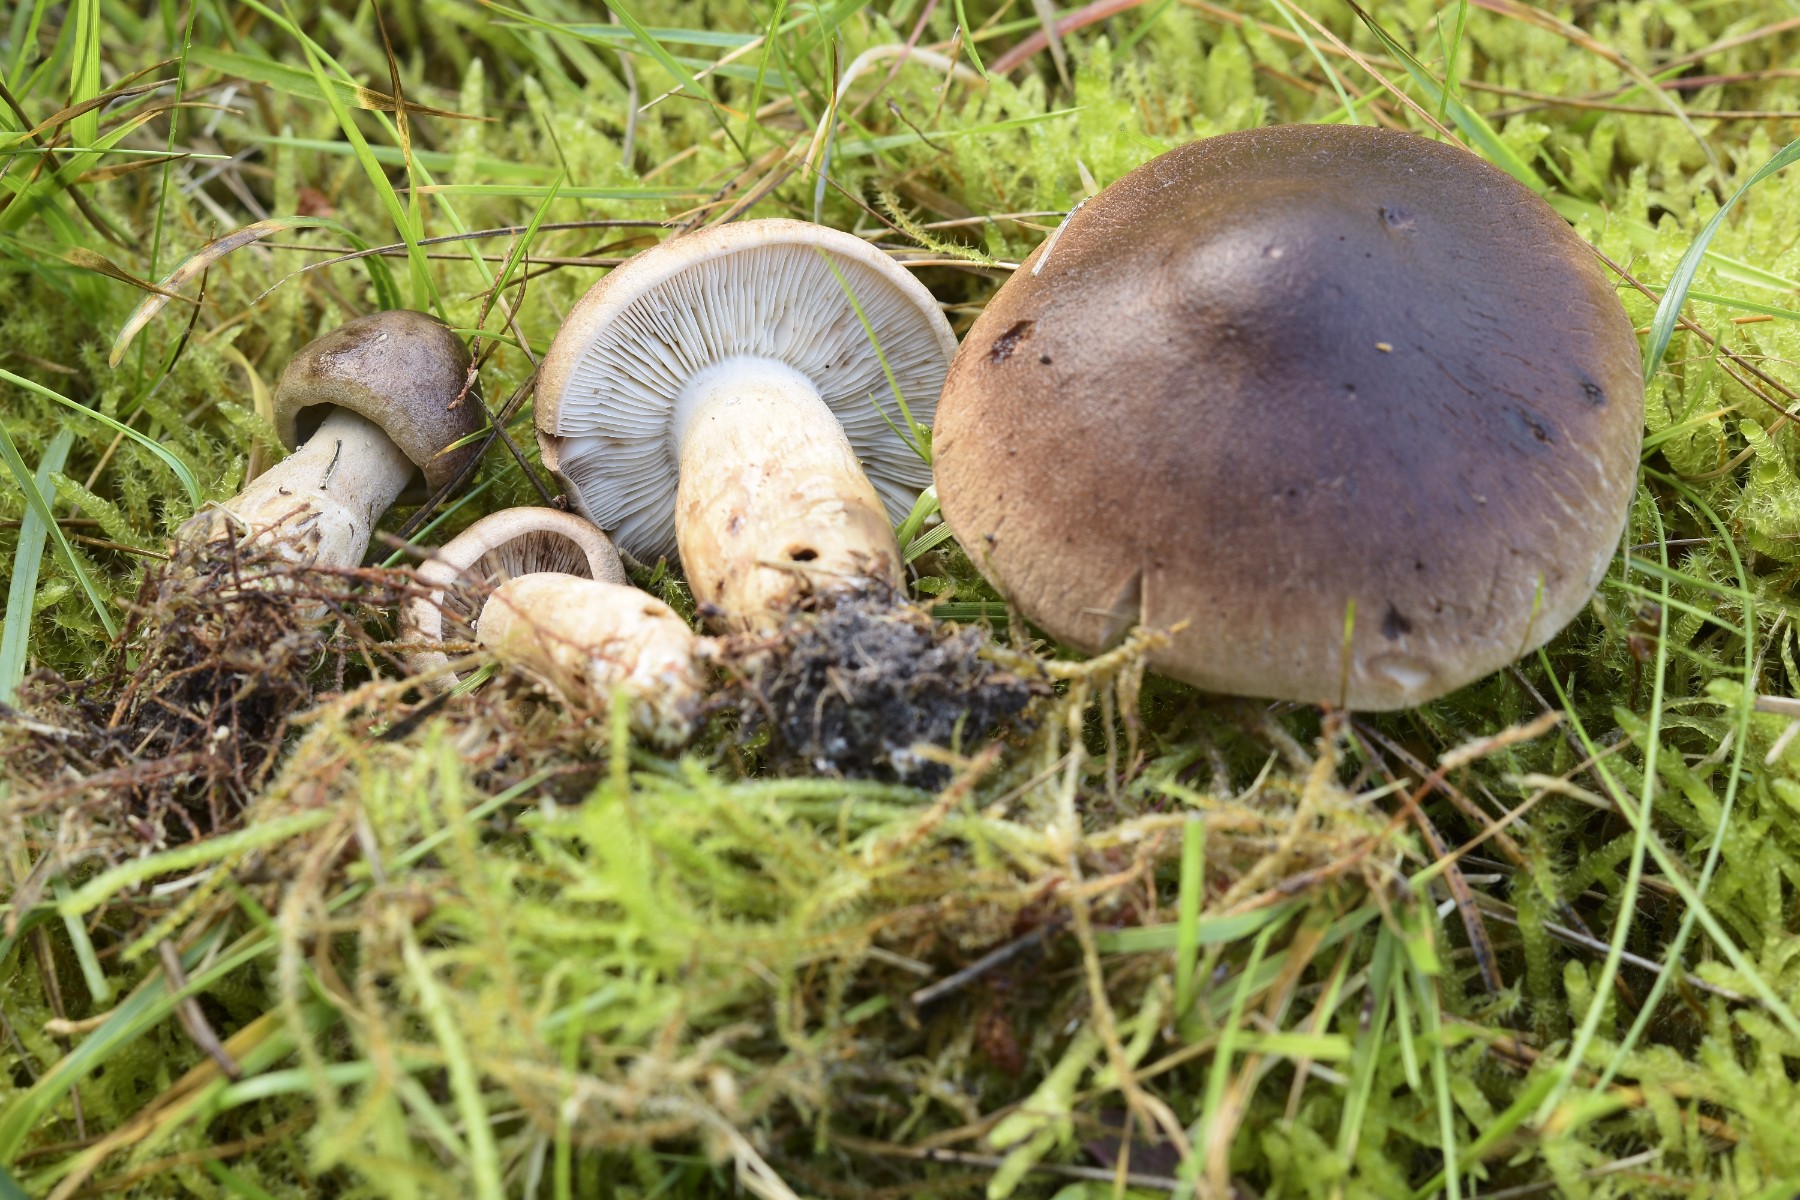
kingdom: Fungi
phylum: Basidiomycota
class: Agaricomycetes
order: Agaricales
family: Tricholomataceae
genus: Tricholoma
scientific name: Tricholoma imbricatum
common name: skællet ridderhat
